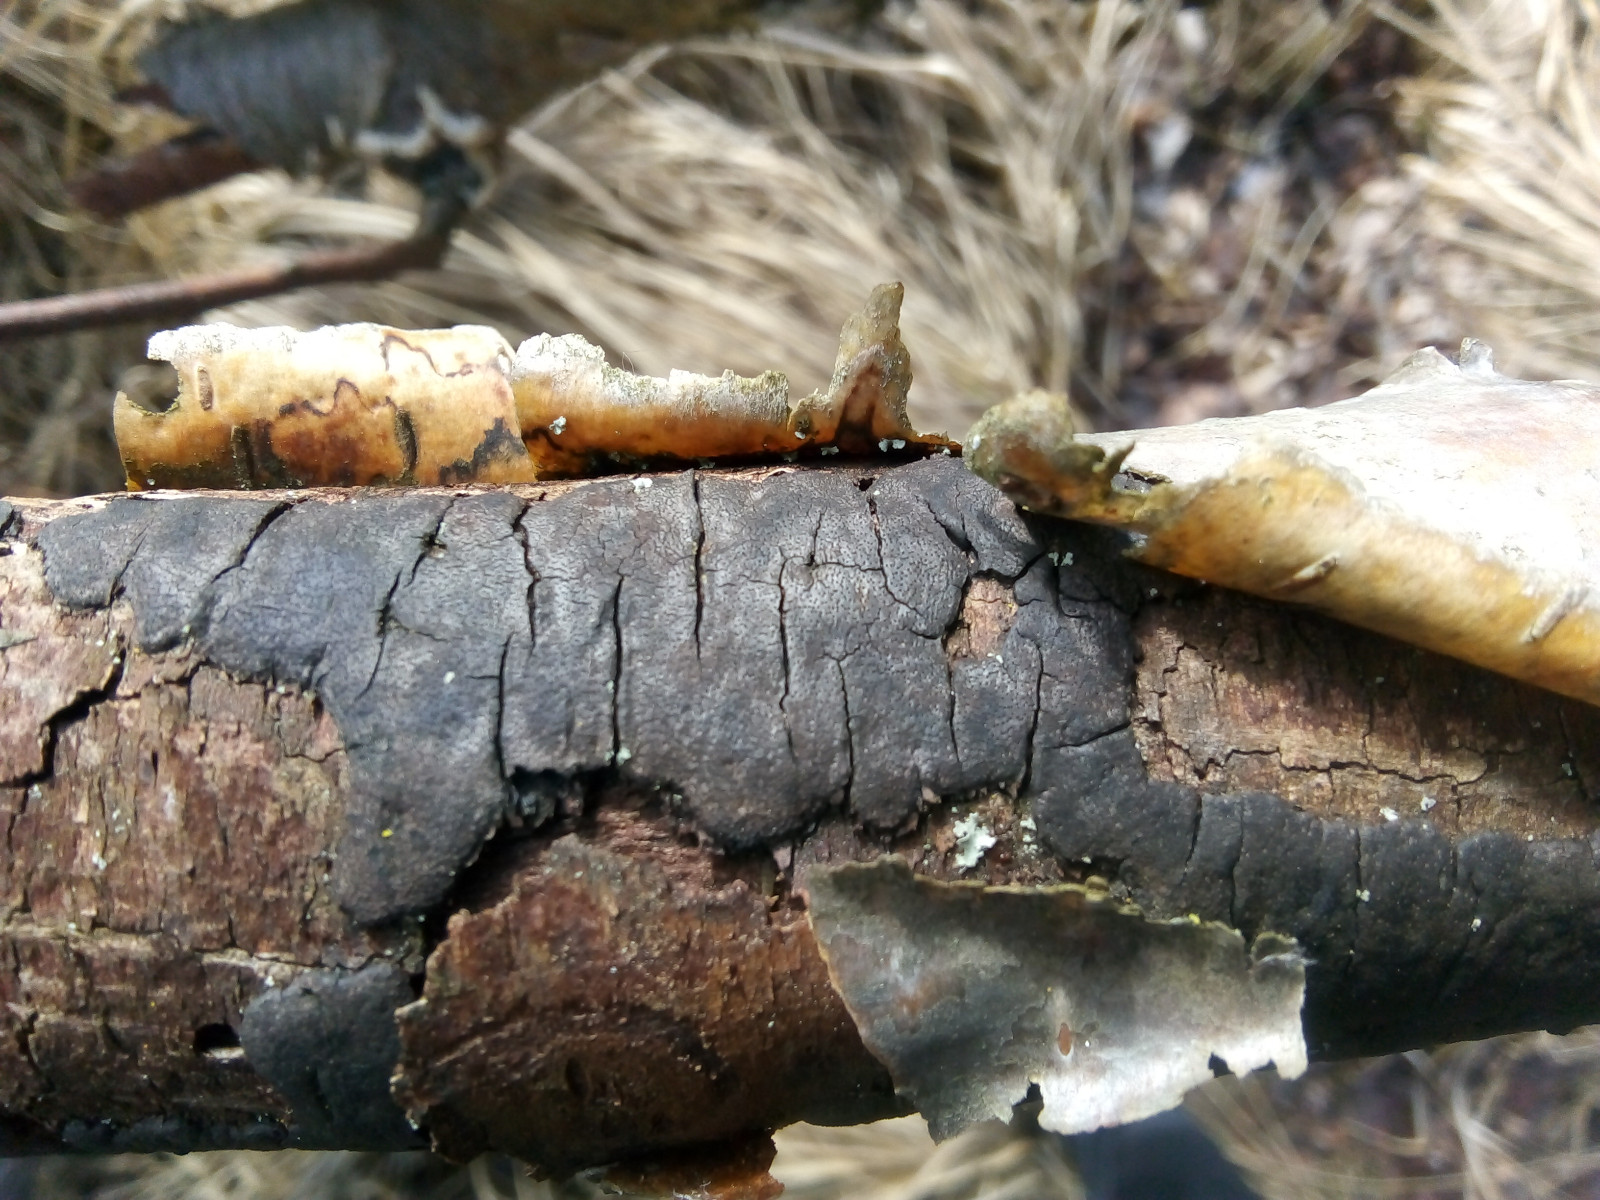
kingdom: Fungi
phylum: Ascomycota
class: Sordariomycetes
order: Xylariales
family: Diatrypaceae
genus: Diatrype
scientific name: Diatrype
